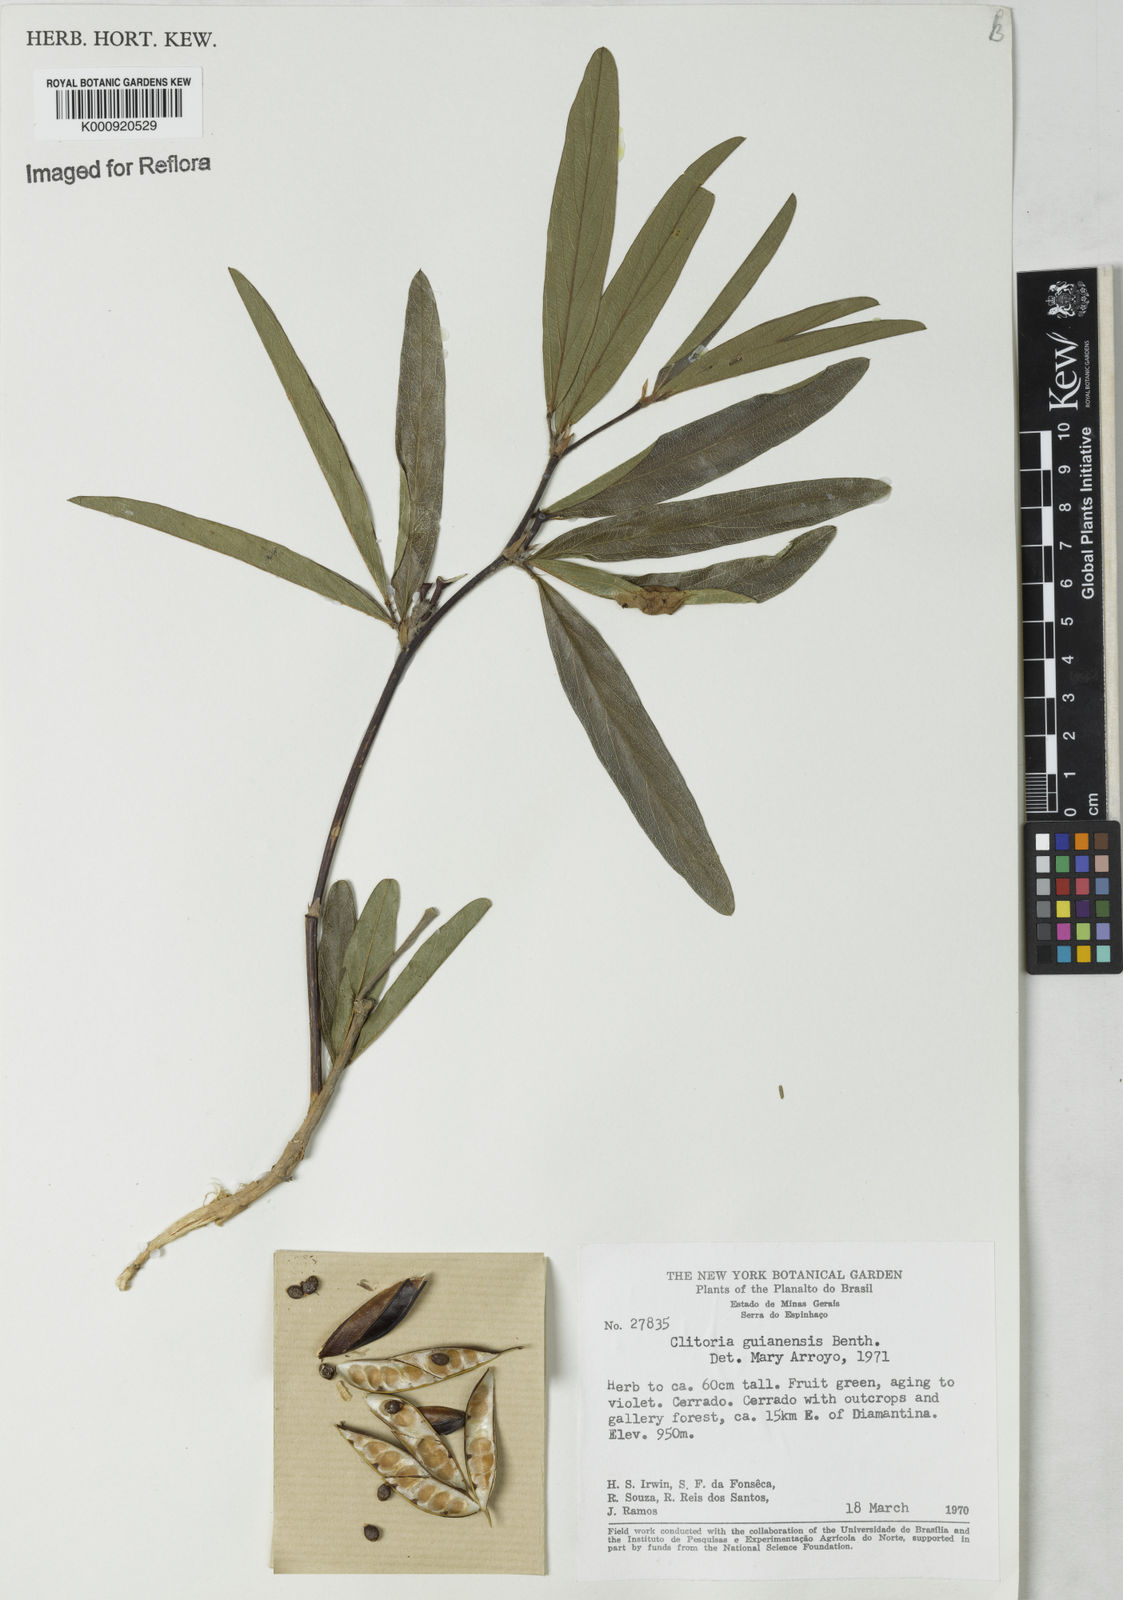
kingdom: Plantae
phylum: Tracheophyta
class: Magnoliopsida
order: Fabales
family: Fabaceae
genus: Clitoria
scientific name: Clitoria guianensis
